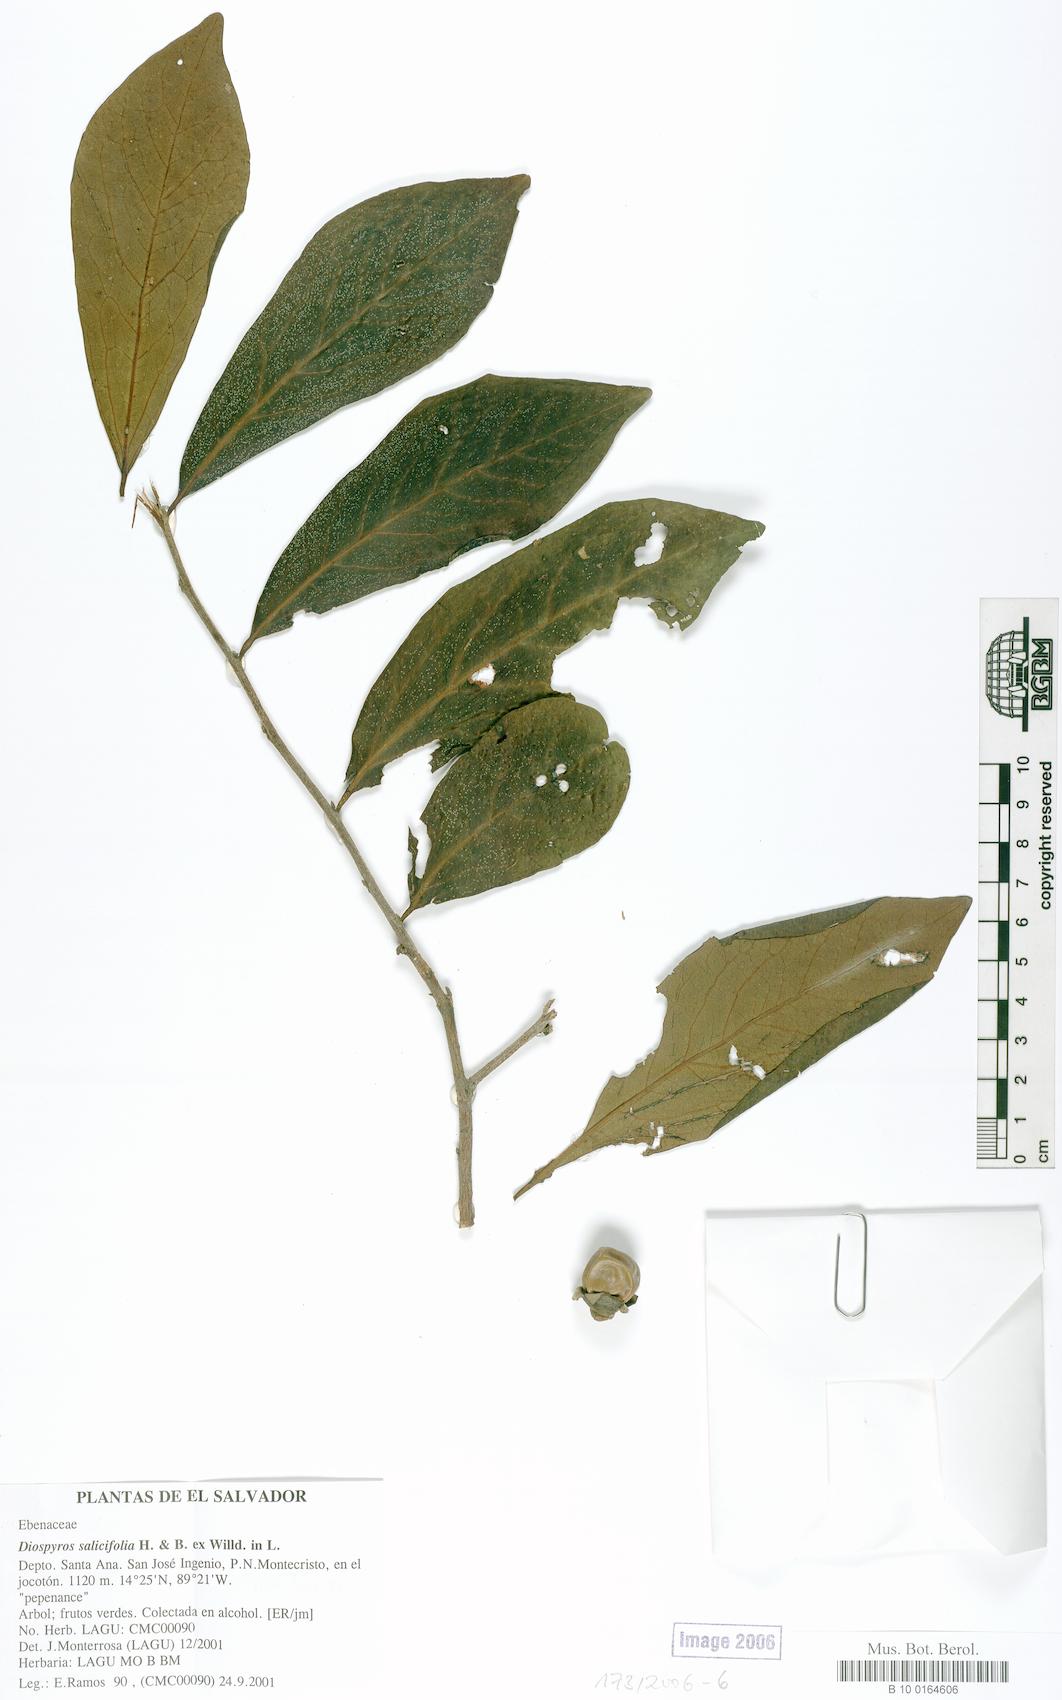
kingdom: Plantae
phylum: Tracheophyta
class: Magnoliopsida
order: Ericales
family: Ebenaceae
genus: Diospyros
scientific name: Diospyros salicifolia
